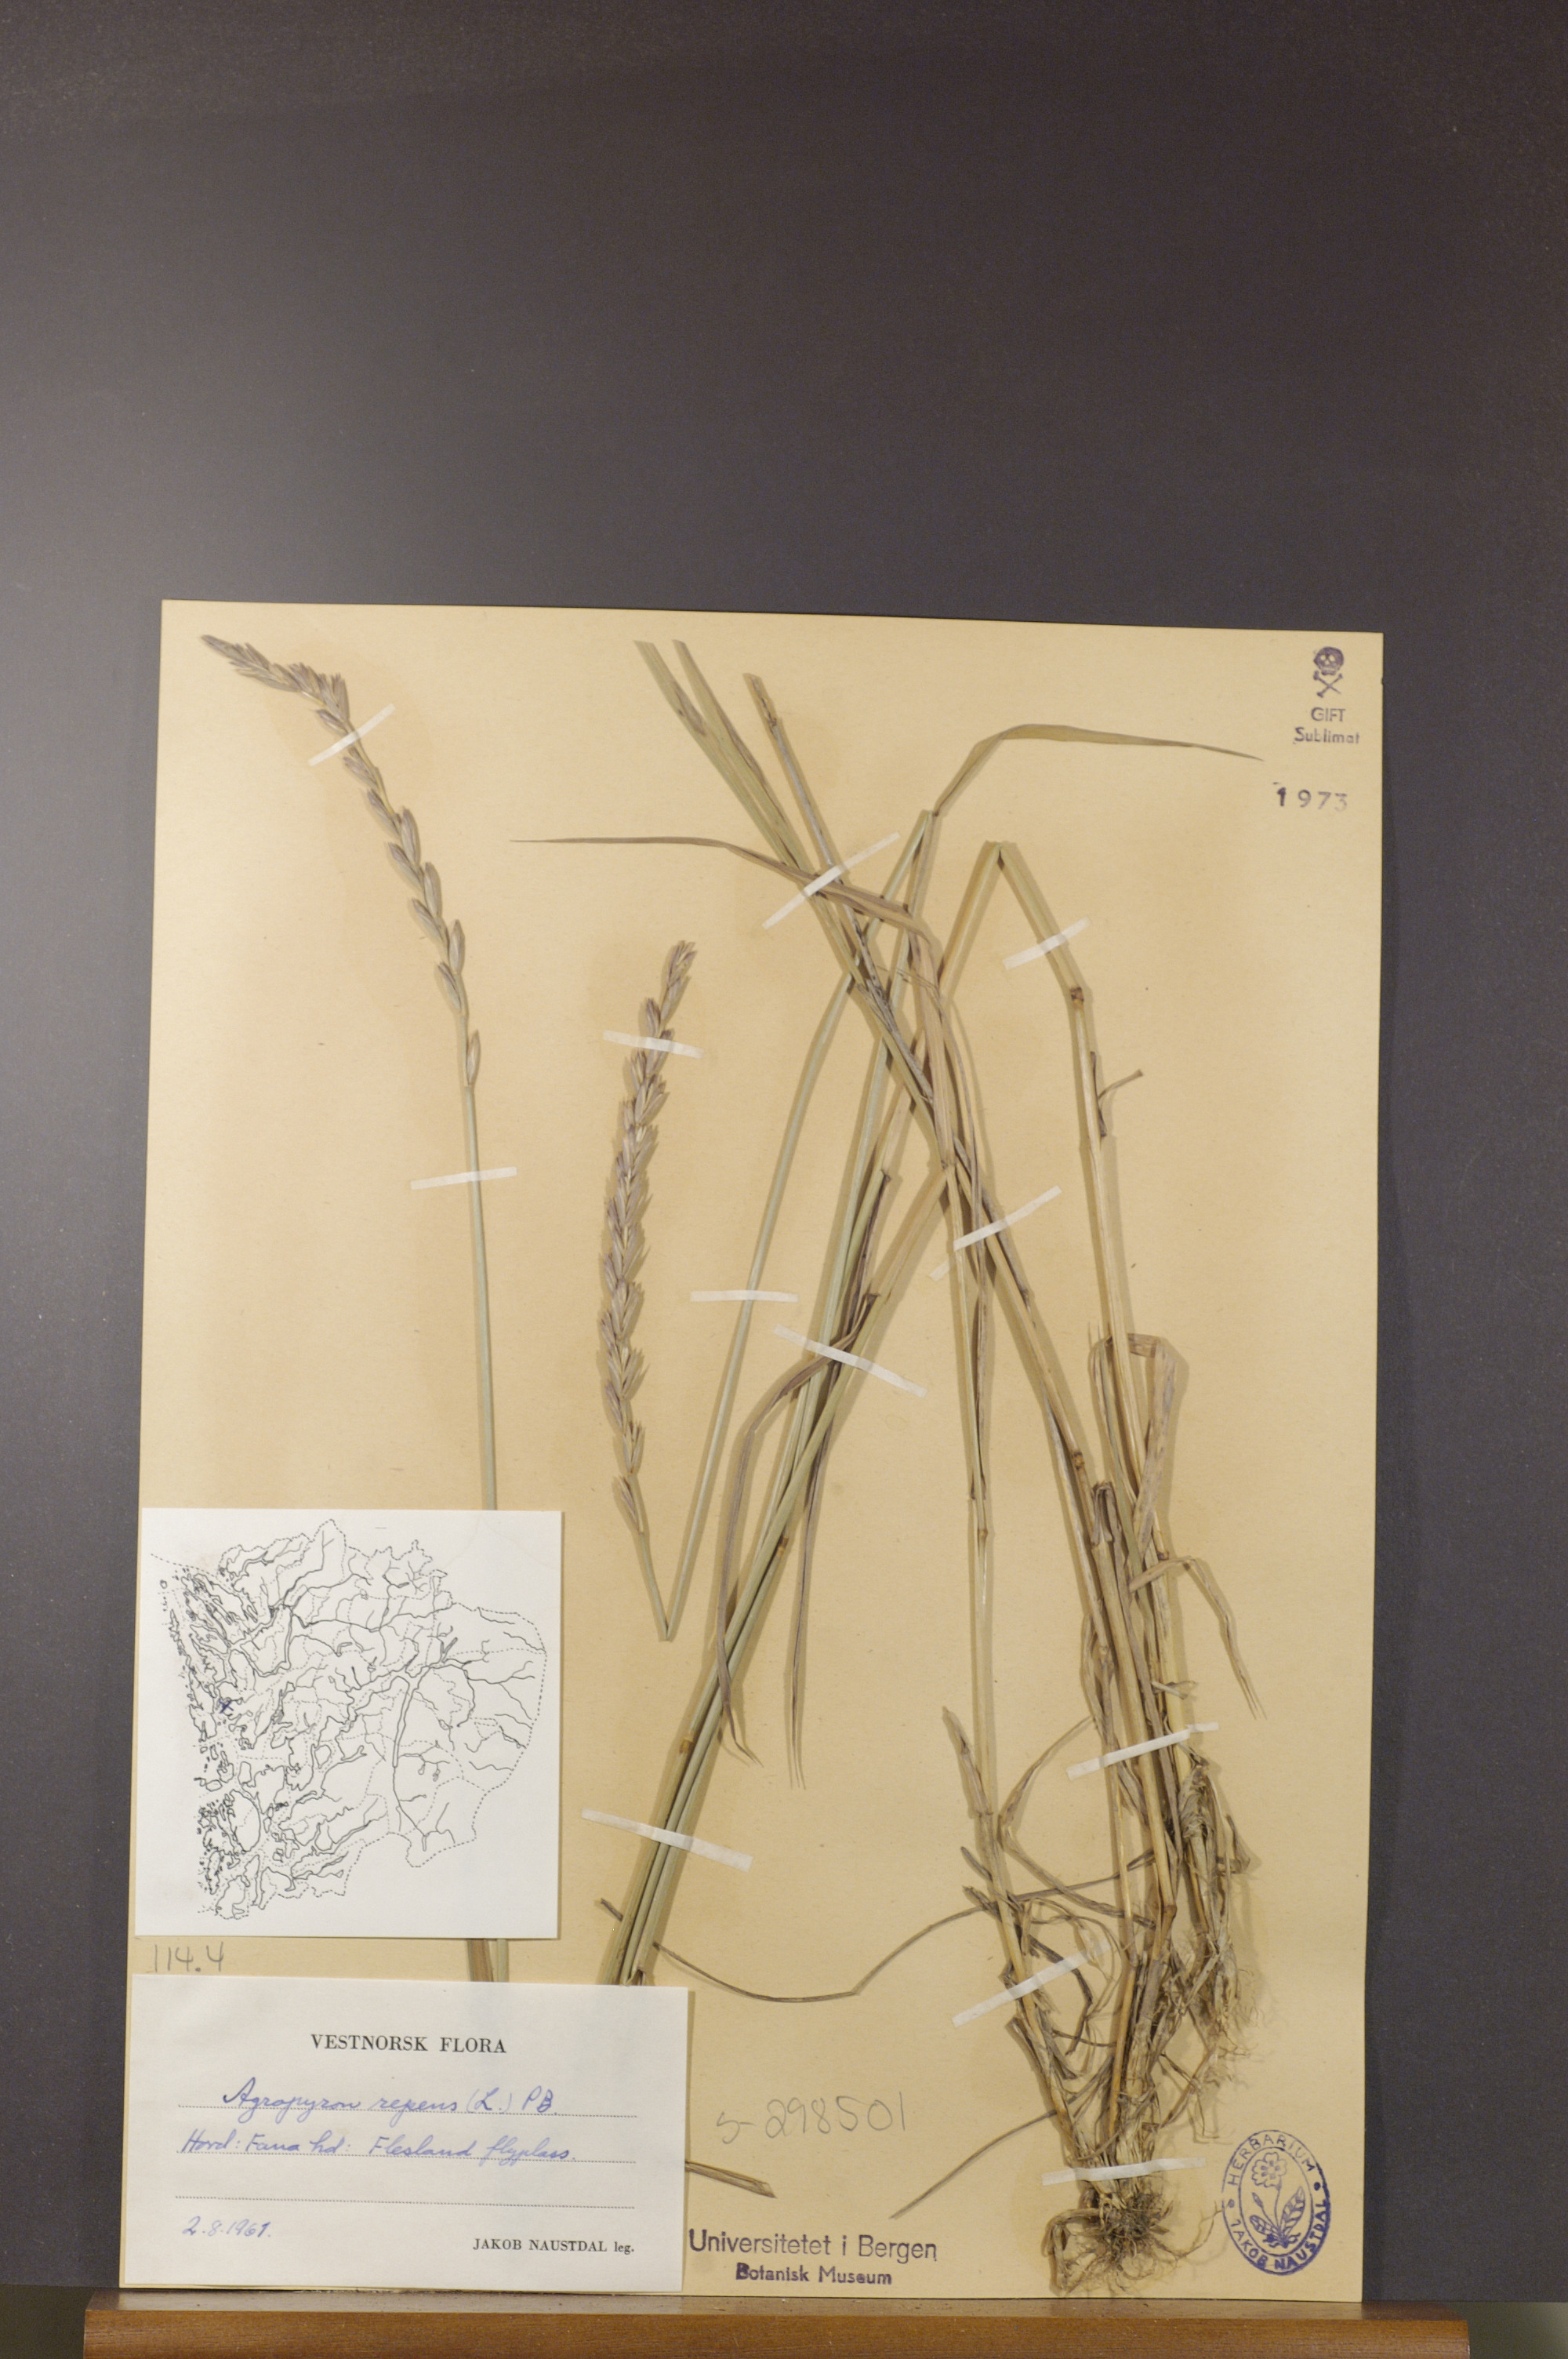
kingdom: Plantae
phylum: Tracheophyta
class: Liliopsida
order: Poales
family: Poaceae
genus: Elymus
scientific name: Elymus repens
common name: Quackgrass
